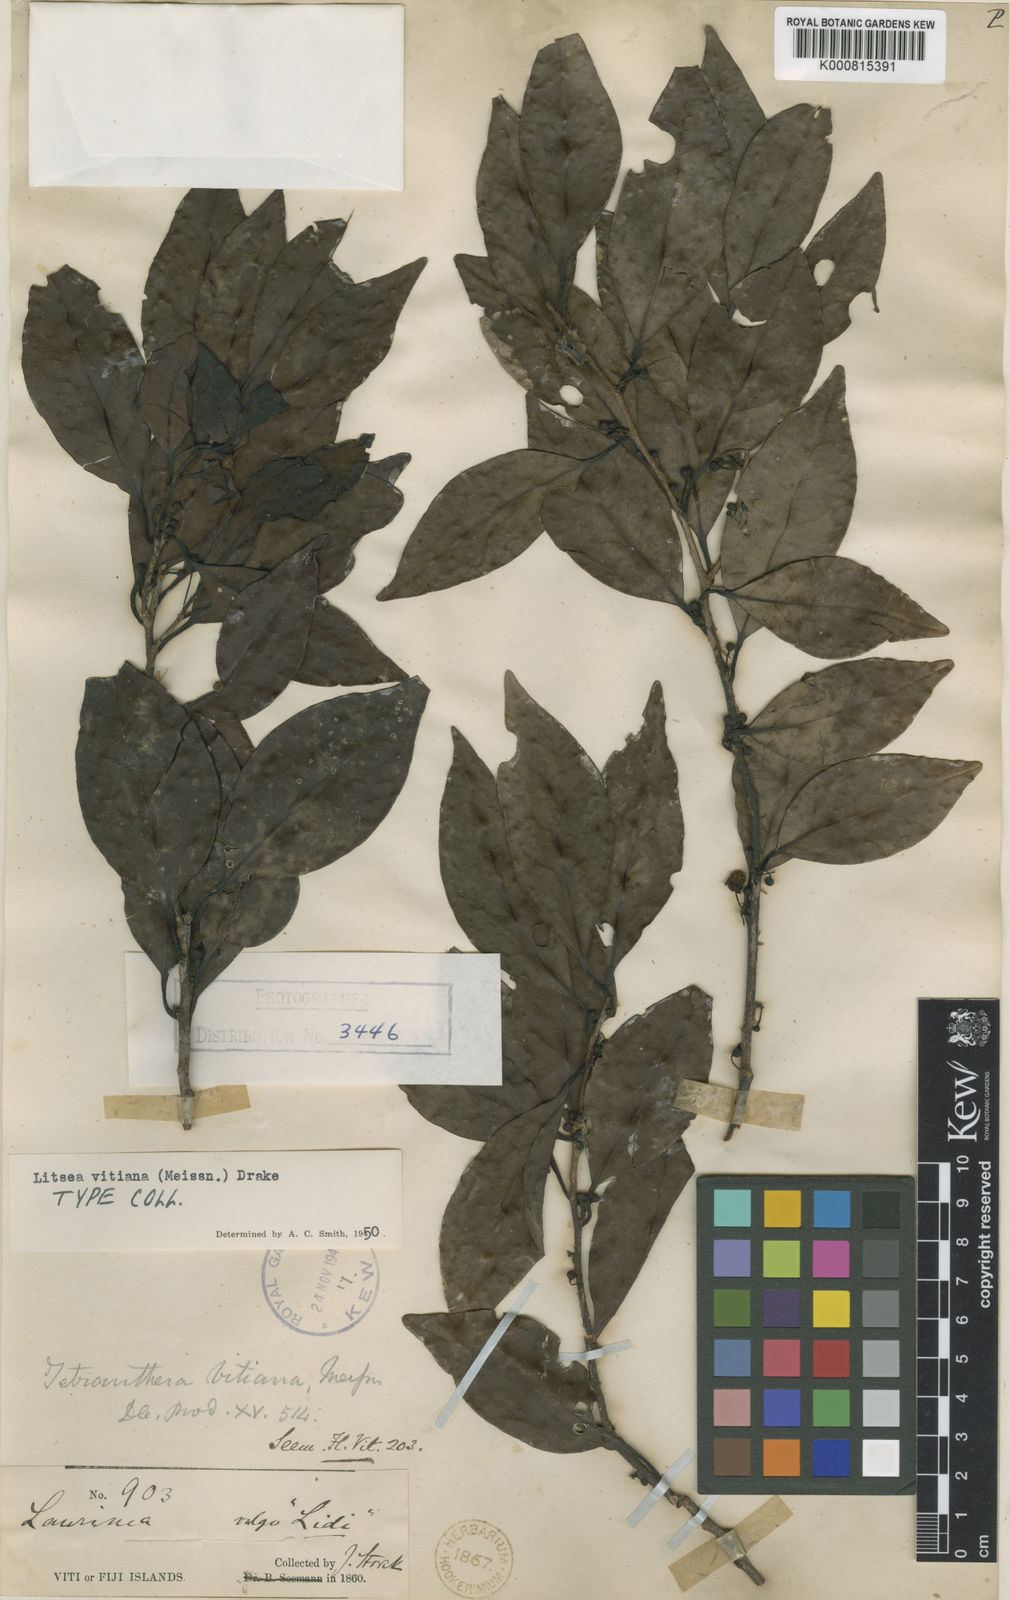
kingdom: Plantae
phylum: Tracheophyta
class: Magnoliopsida
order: Laurales
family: Lauraceae
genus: Litsea
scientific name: Litsea vitiana
